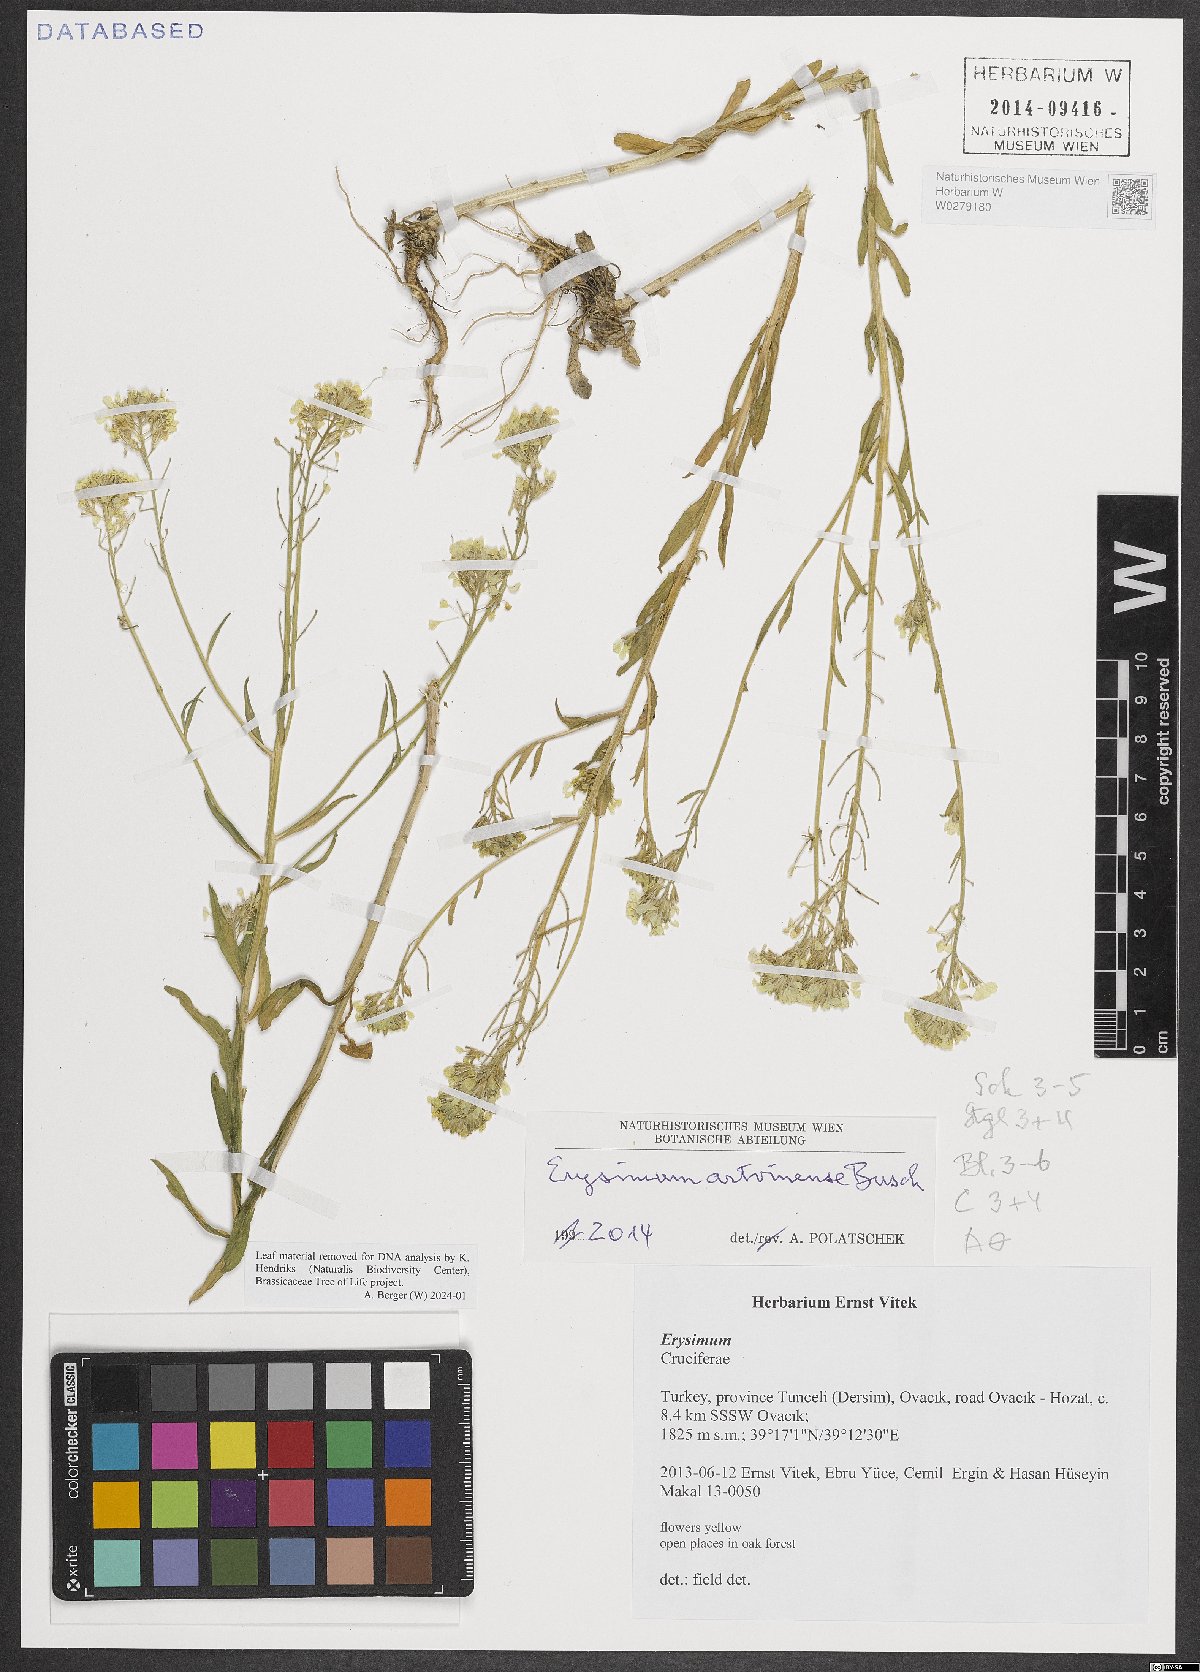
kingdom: Plantae
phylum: Tracheophyta
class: Magnoliopsida
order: Brassicales
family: Brassicaceae
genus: Erysimum
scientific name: Erysimum artwinense
